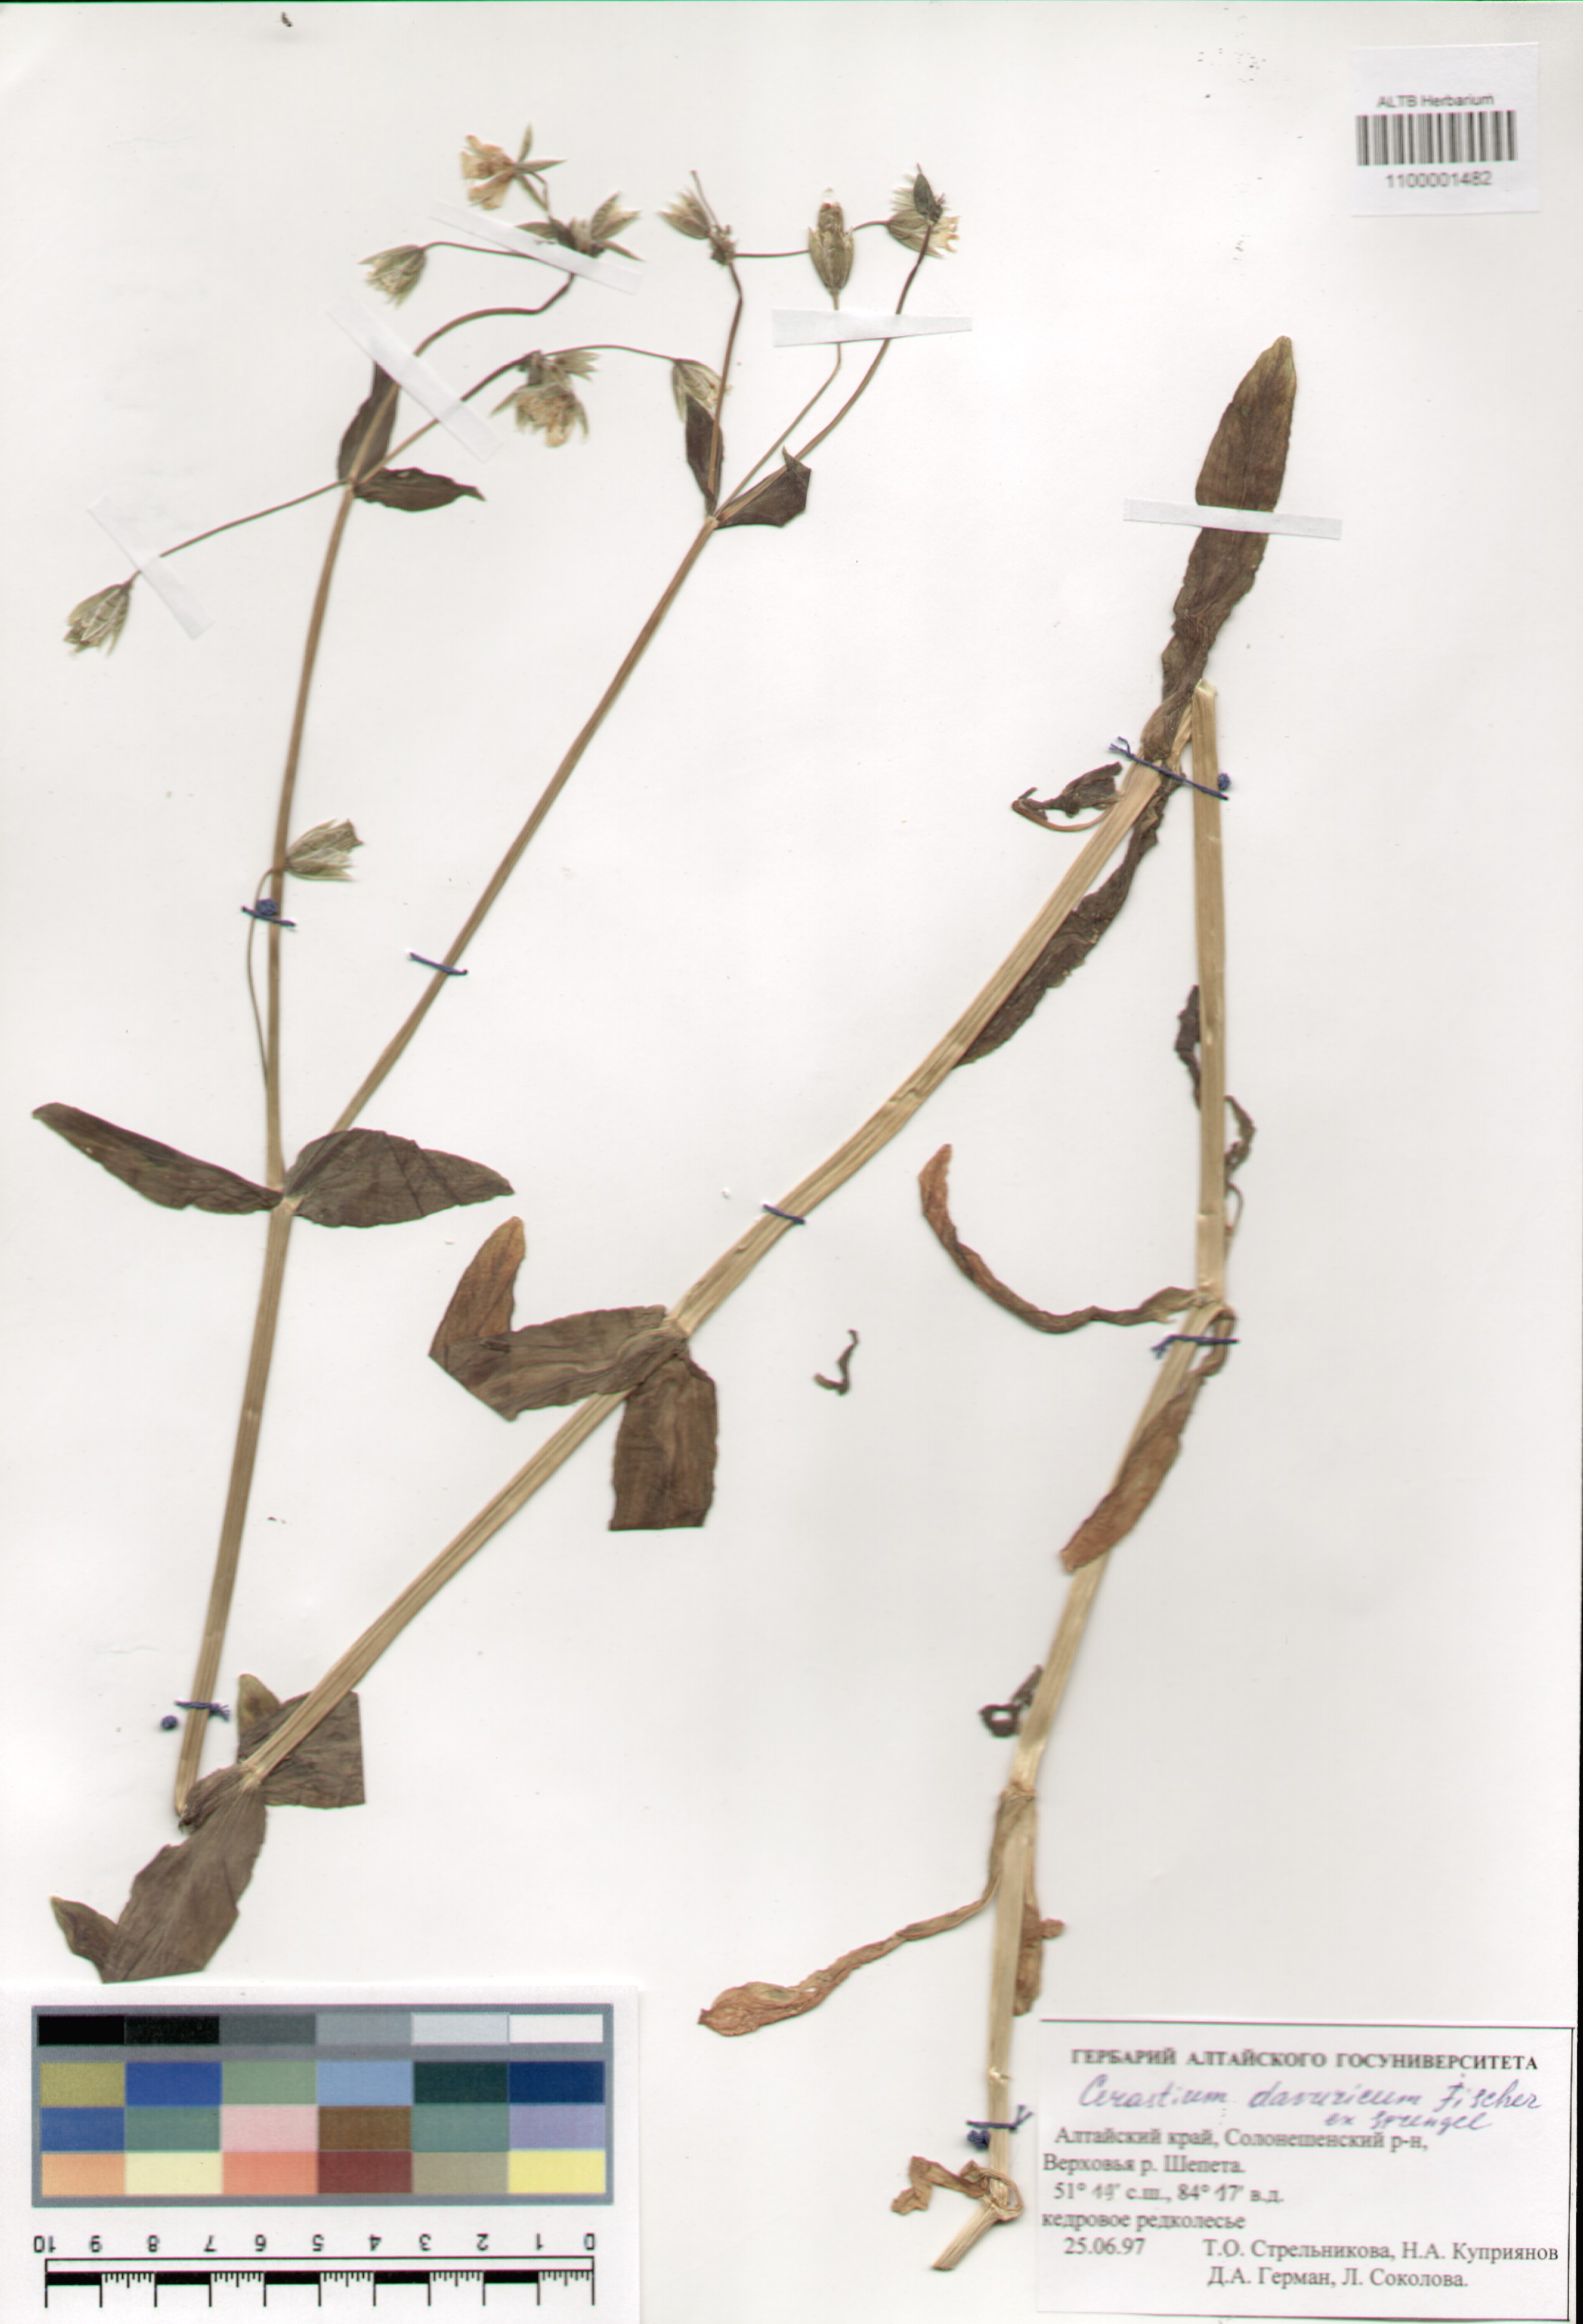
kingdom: Plantae
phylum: Tracheophyta
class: Magnoliopsida
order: Caryophyllales
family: Caryophyllaceae
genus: Dichodon
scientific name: Dichodon davuricum
